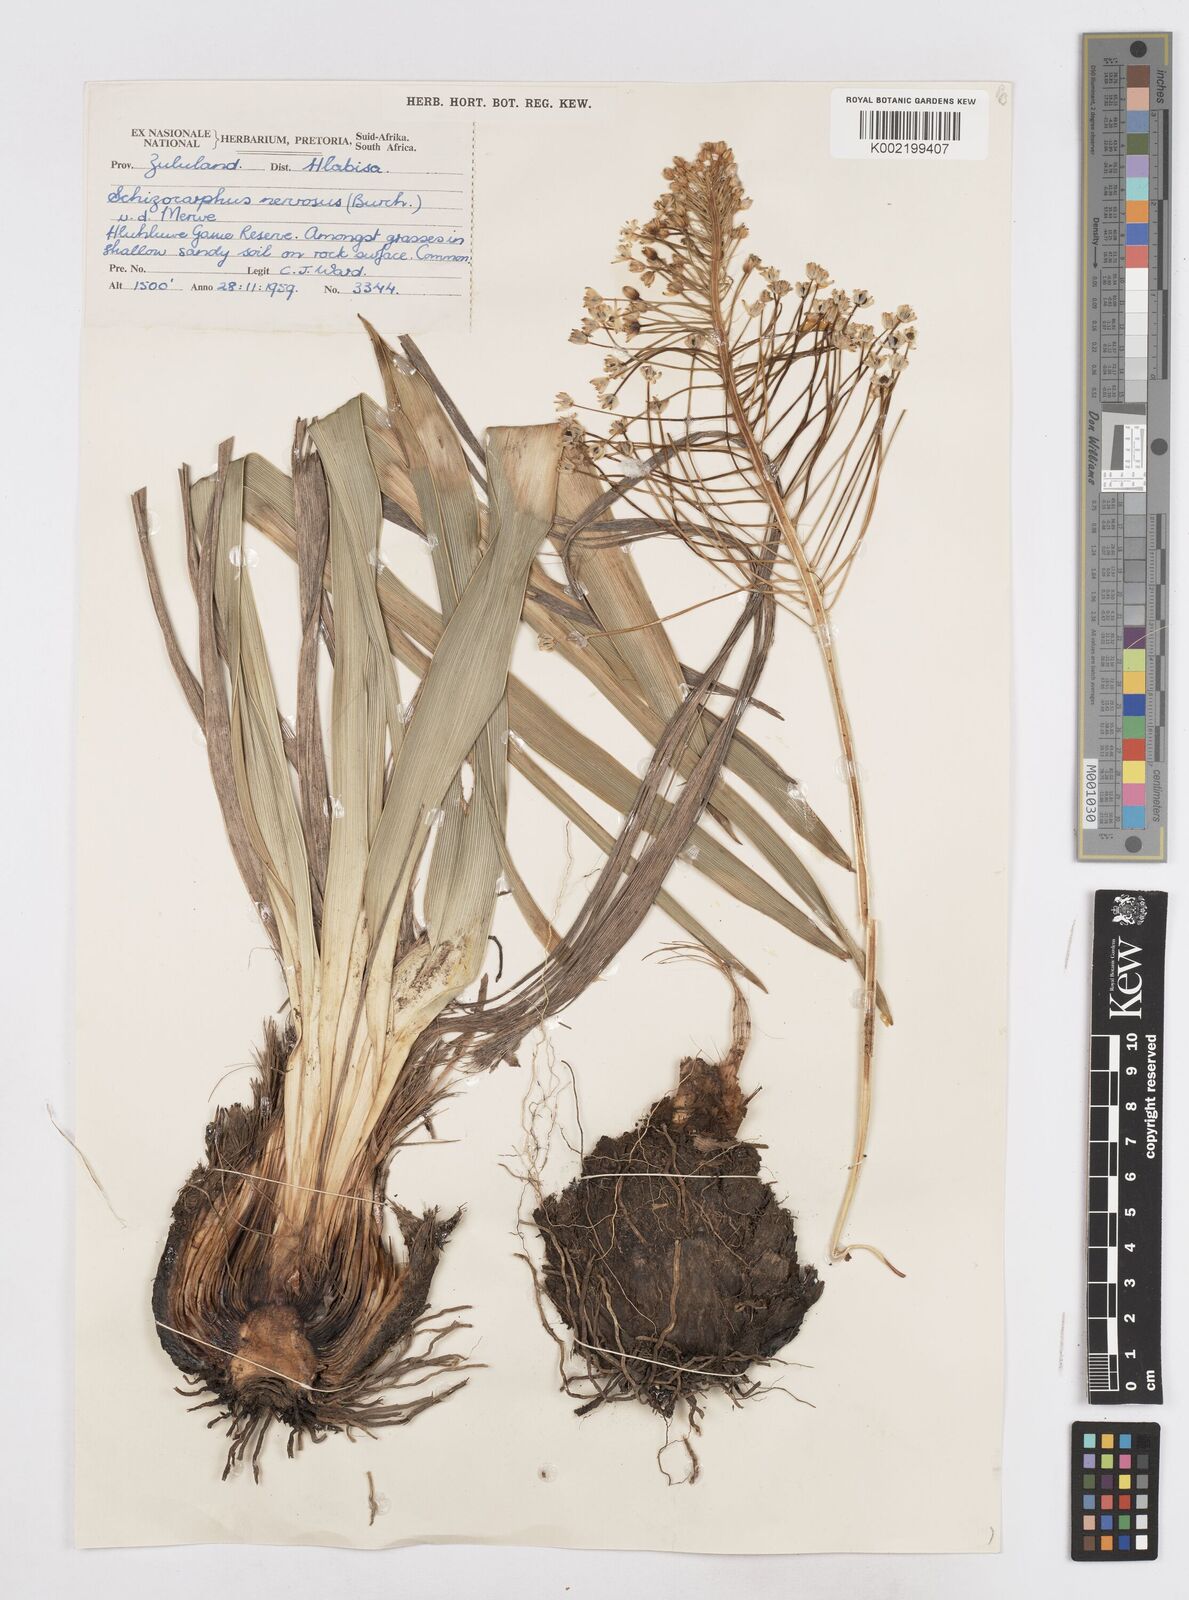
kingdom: Plantae
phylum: Tracheophyta
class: Liliopsida
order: Asparagales
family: Asparagaceae
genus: Schizocarphus
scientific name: Schizocarphus nervosus
